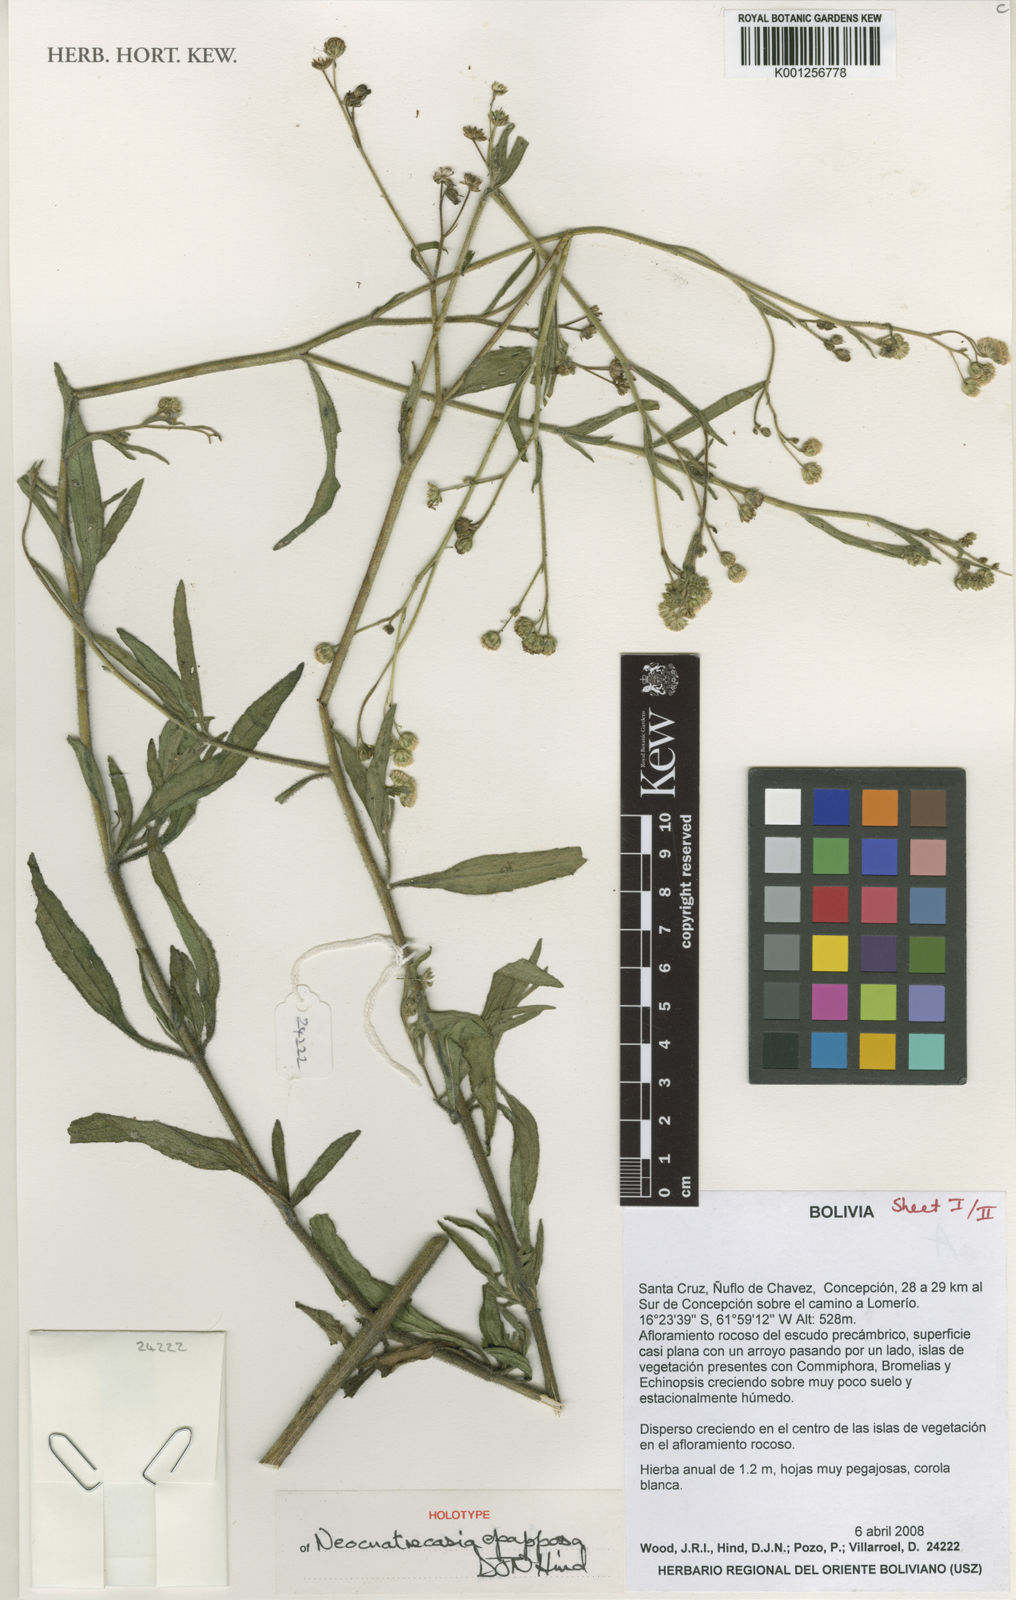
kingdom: Plantae
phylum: Tracheophyta
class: Magnoliopsida
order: Asterales
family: Asteraceae
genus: Neocuatrecasia
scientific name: Neocuatrecasia epapposa
